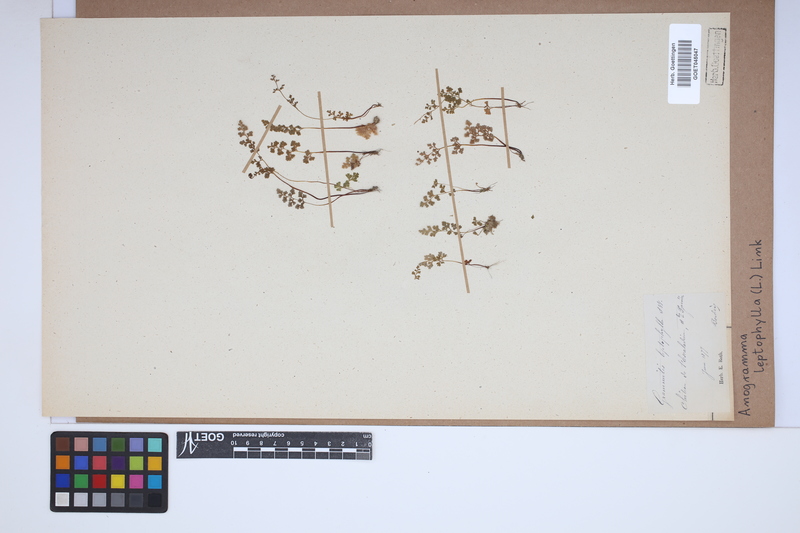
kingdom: Plantae
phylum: Tracheophyta
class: Polypodiopsida
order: Polypodiales
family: Pteridaceae
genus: Anogramma
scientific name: Anogramma leptophylla
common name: Jersey fern
